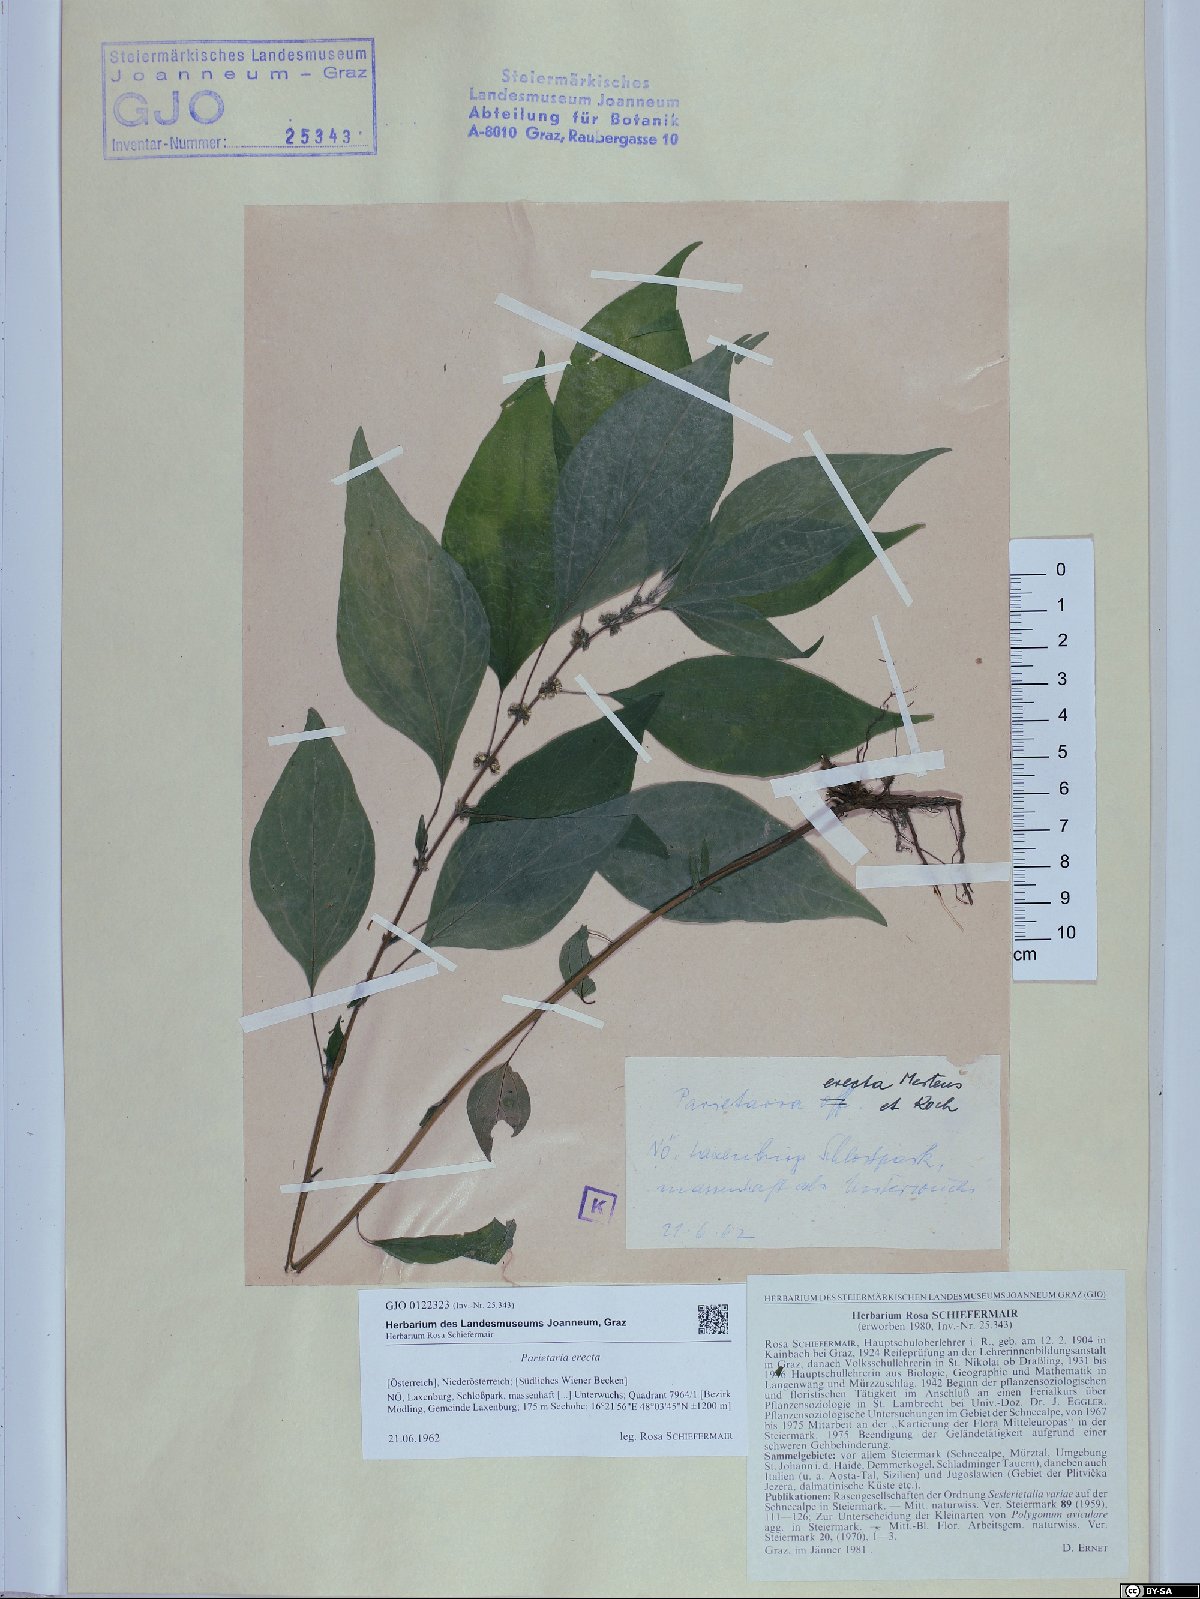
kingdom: Plantae
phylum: Tracheophyta
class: Magnoliopsida
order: Rosales
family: Urticaceae
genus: Parietaria
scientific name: Parietaria officinalis
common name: Eastern pellitory-of-the-wall
